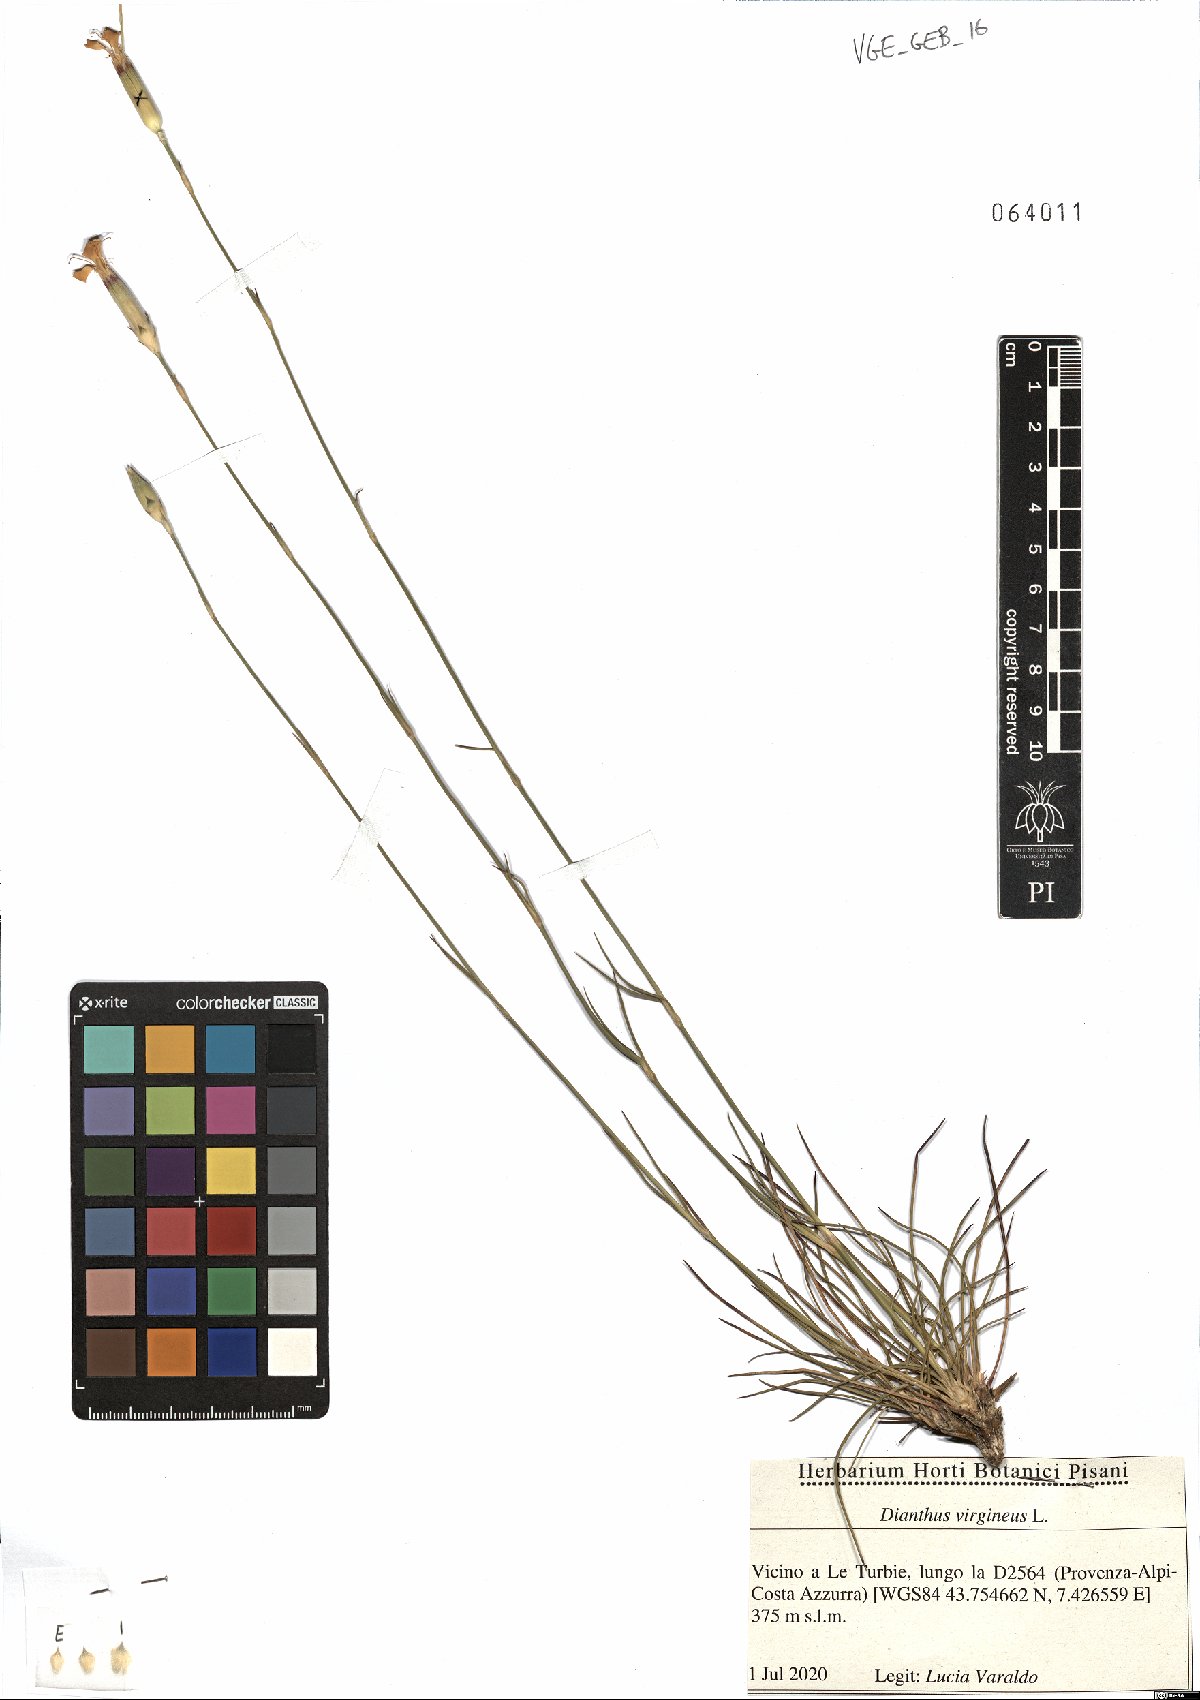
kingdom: Plantae
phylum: Tracheophyta
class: Magnoliopsida
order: Caryophyllales
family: Caryophyllaceae
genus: Dianthus
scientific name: Dianthus virgineus
